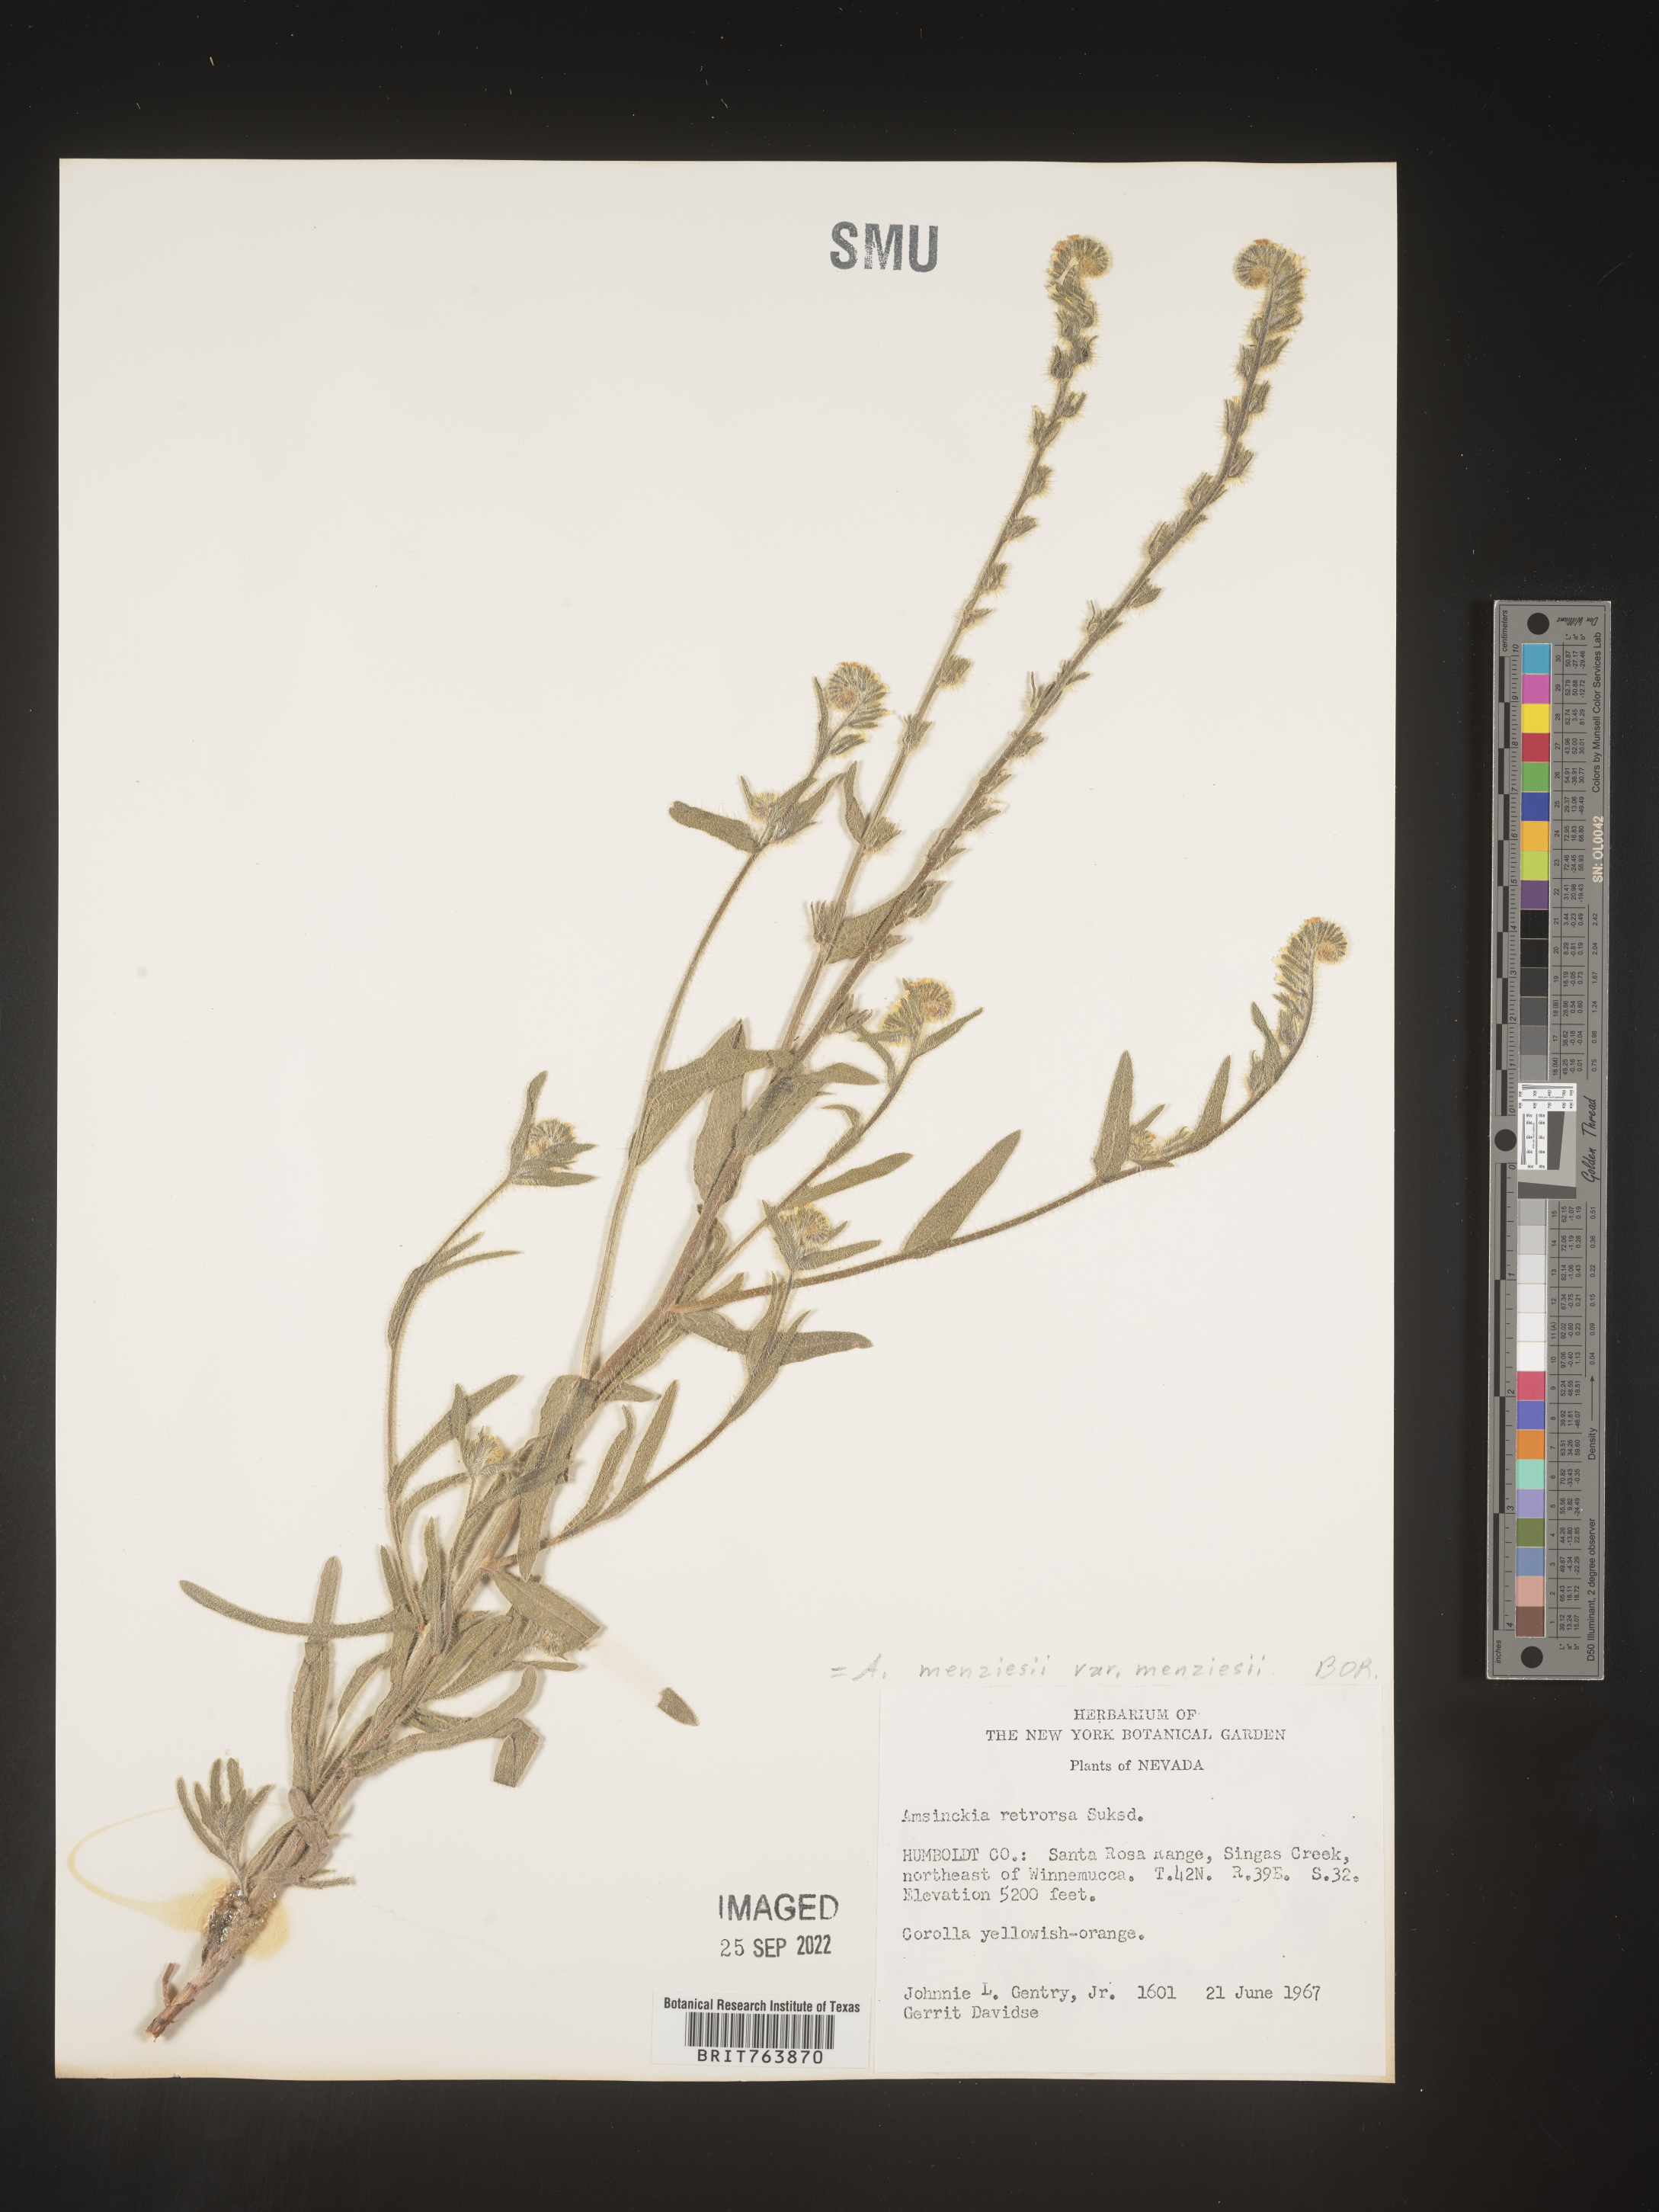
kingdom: Plantae
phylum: Tracheophyta
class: Magnoliopsida
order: Boraginales
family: Boraginaceae
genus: Amsinckia
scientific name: Amsinckia menziesii
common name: Menzies' fiddleneck
